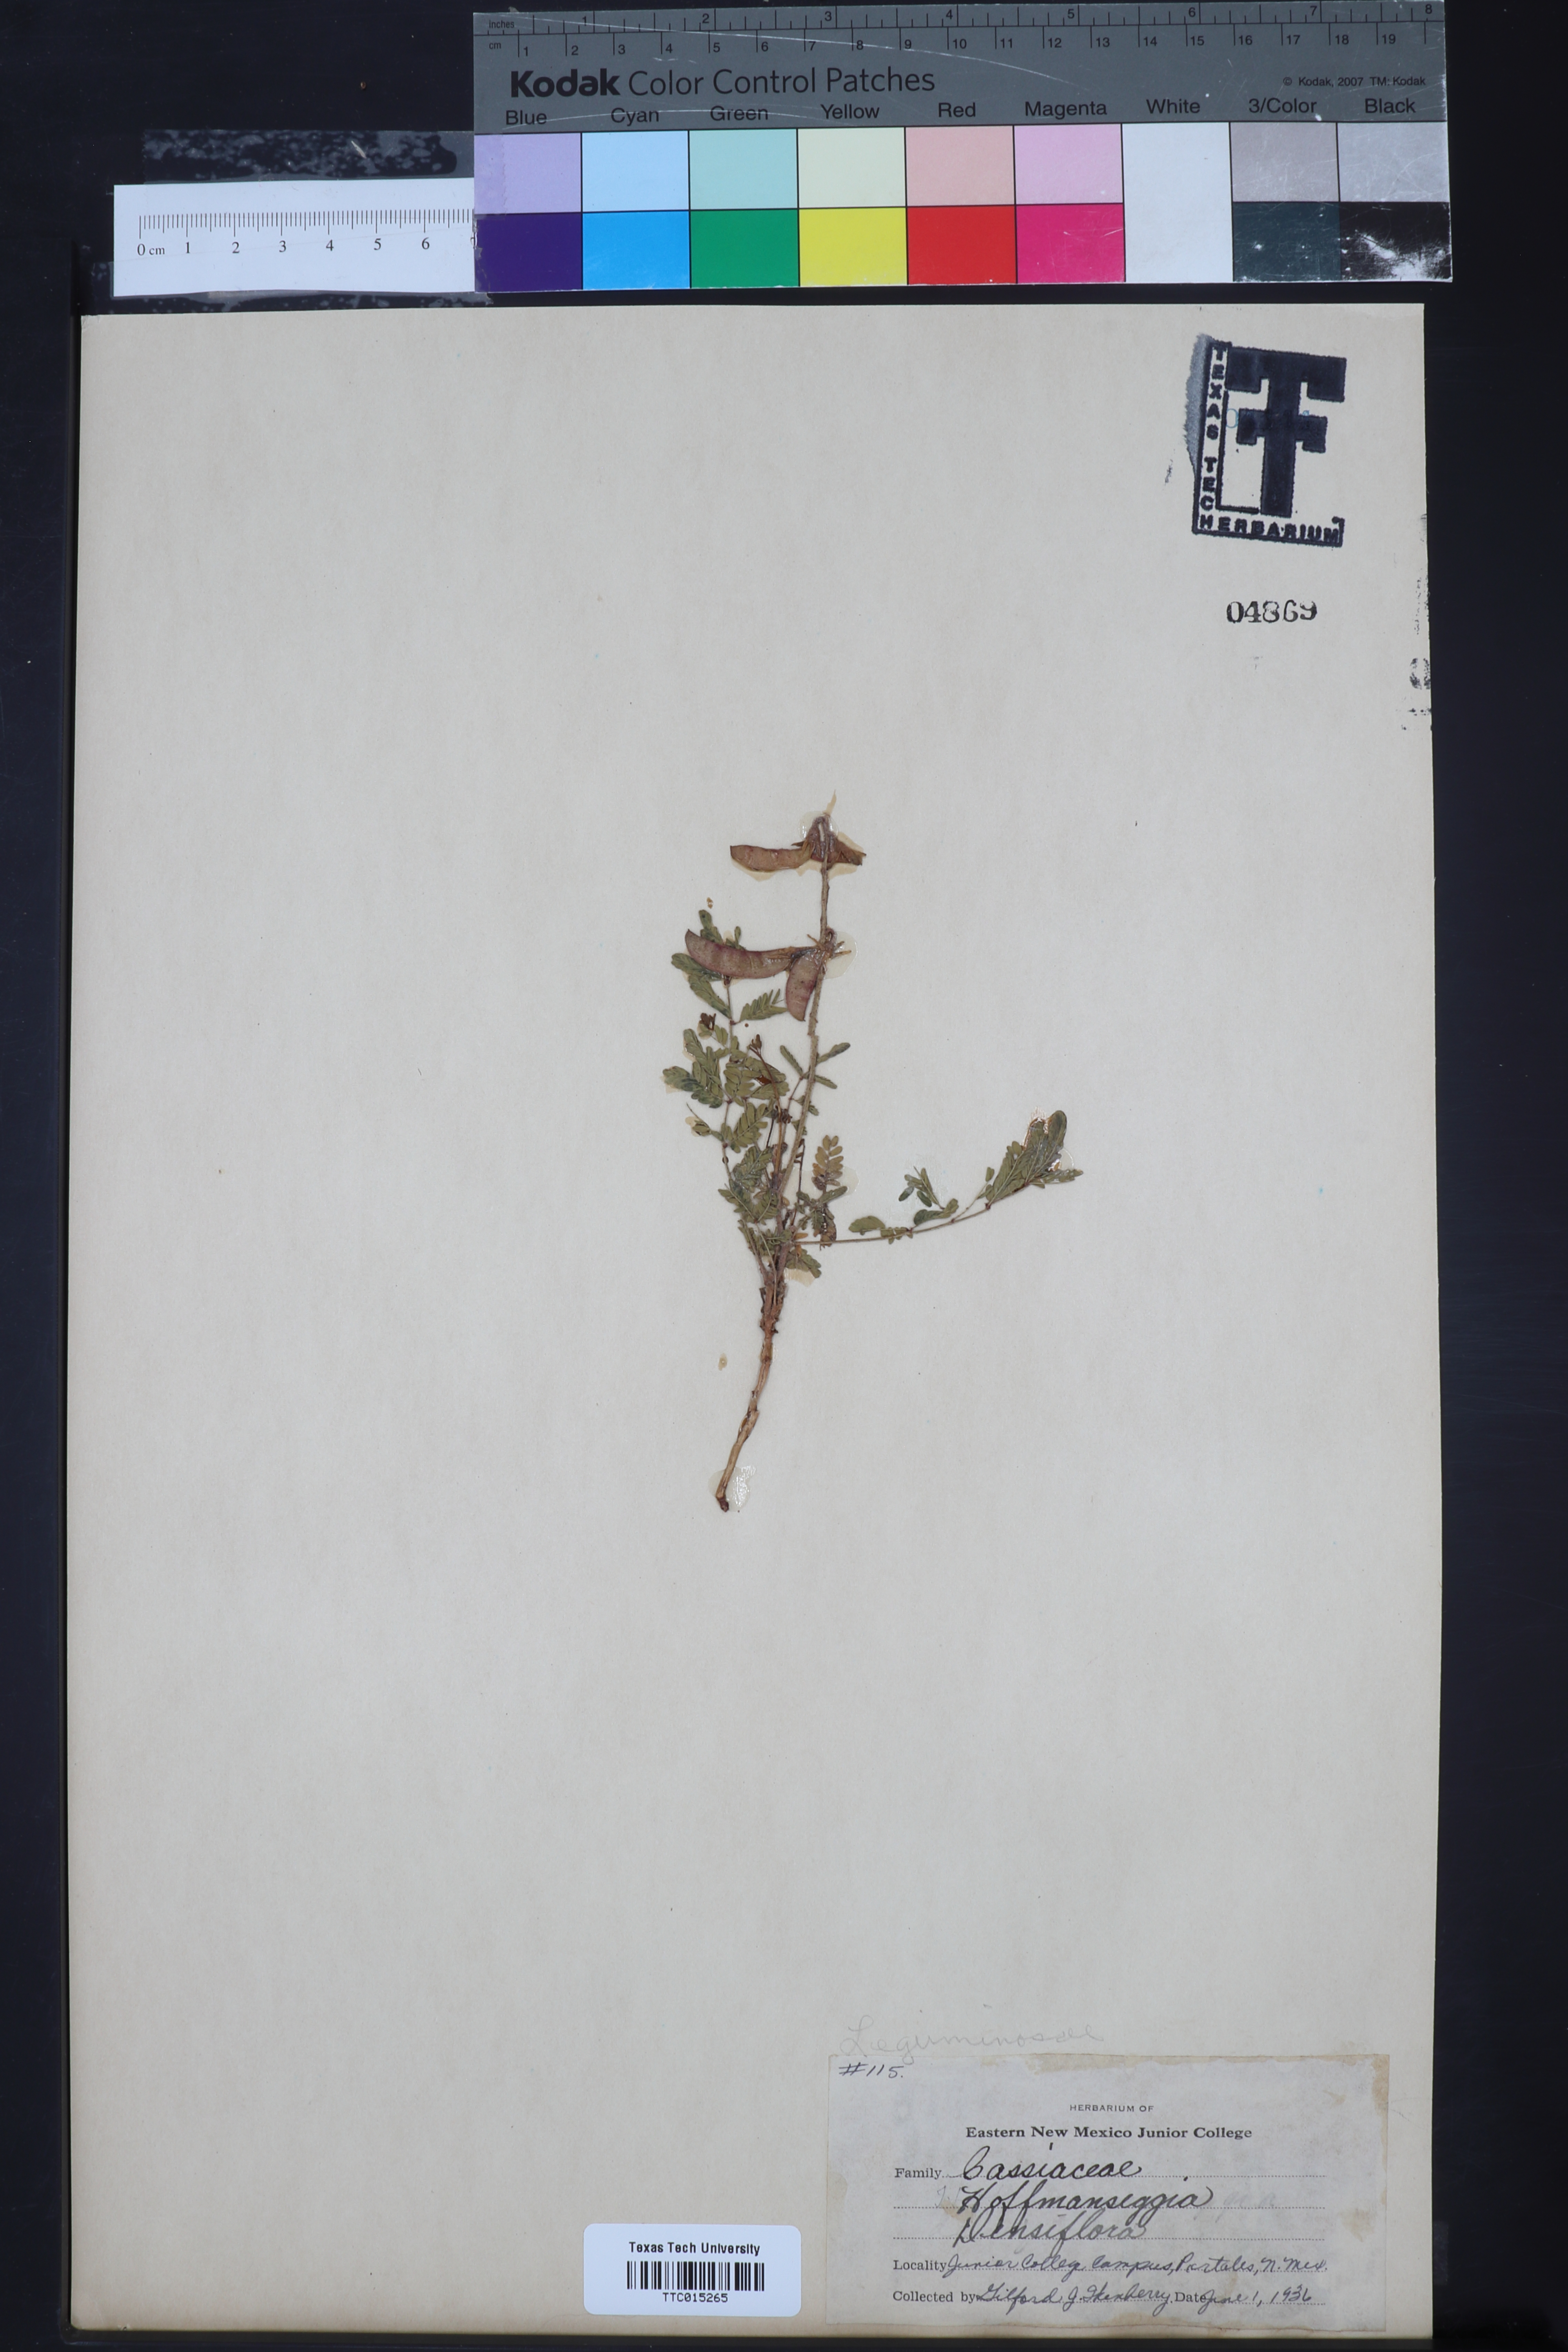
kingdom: Plantae
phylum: Tracheophyta
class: Magnoliopsida
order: Fabales
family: Fabaceae
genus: Hoffmannseggia
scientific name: Hoffmannseggia glauca
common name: Pignut
